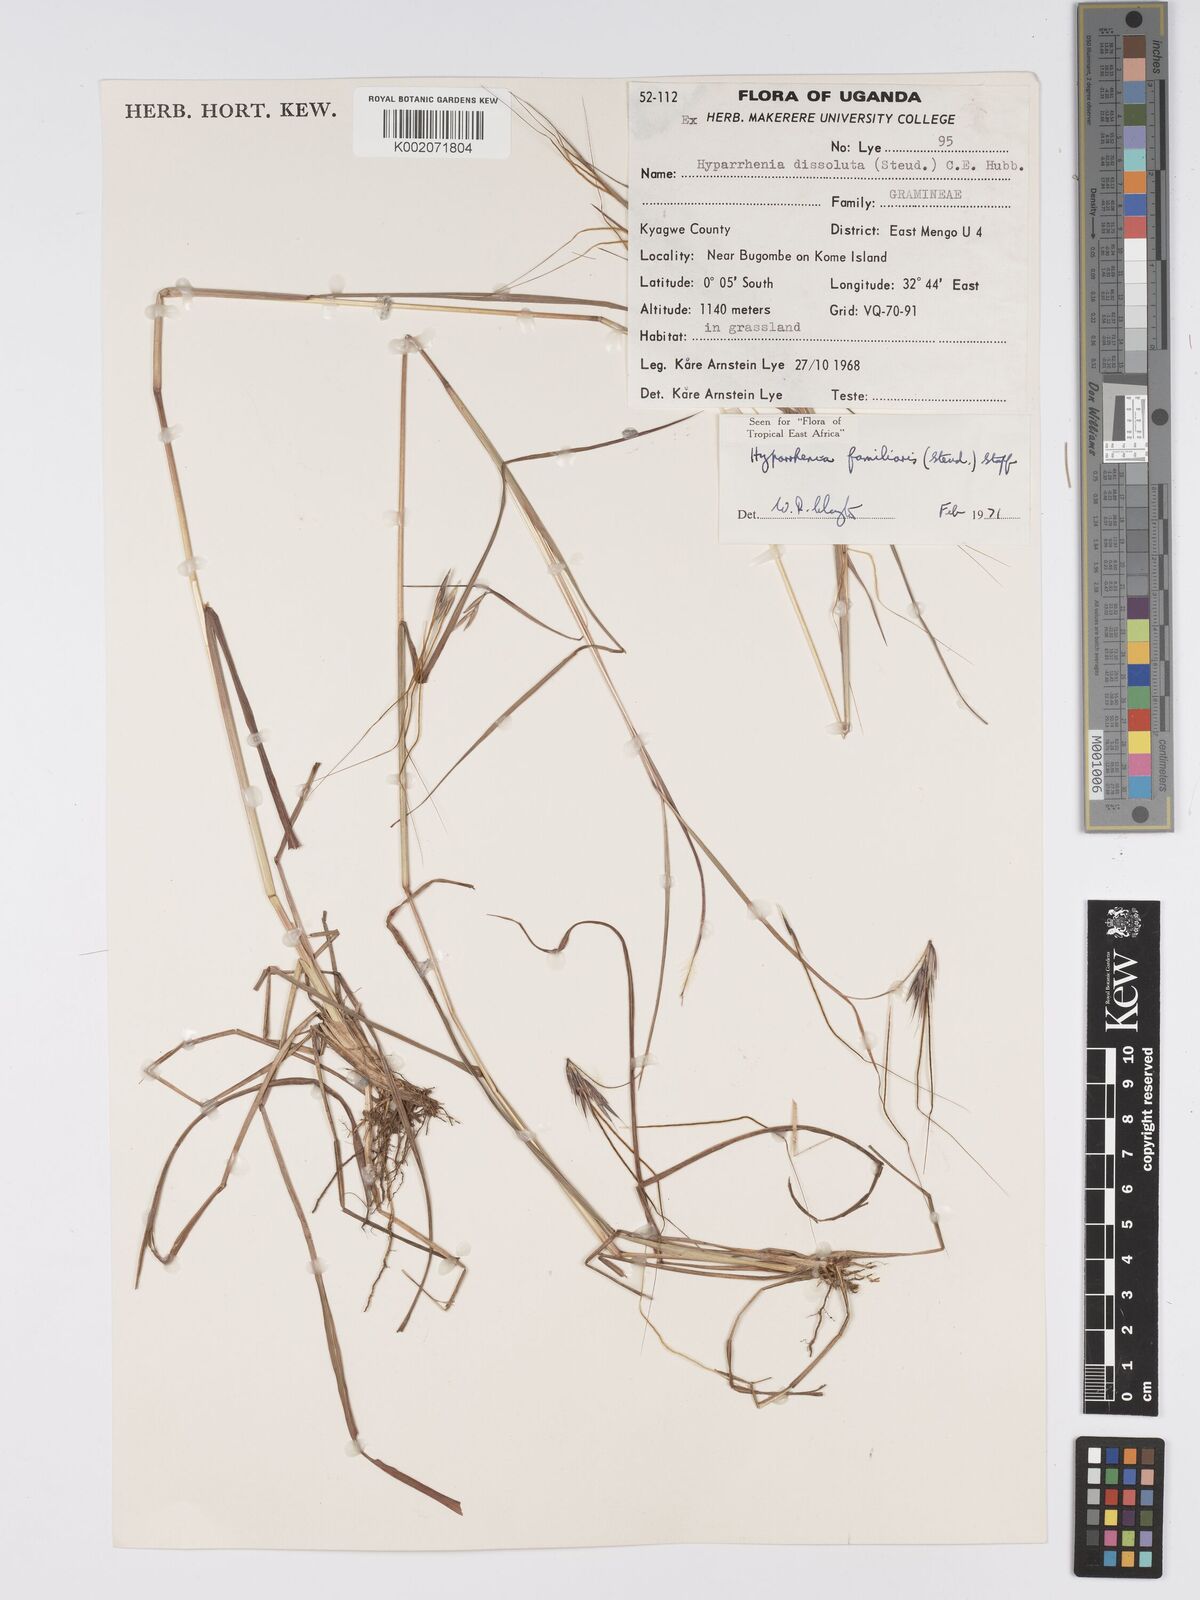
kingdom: Plantae
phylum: Tracheophyta
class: Liliopsida
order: Poales
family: Poaceae
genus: Hyparrhenia
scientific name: Hyparrhenia familiaris
